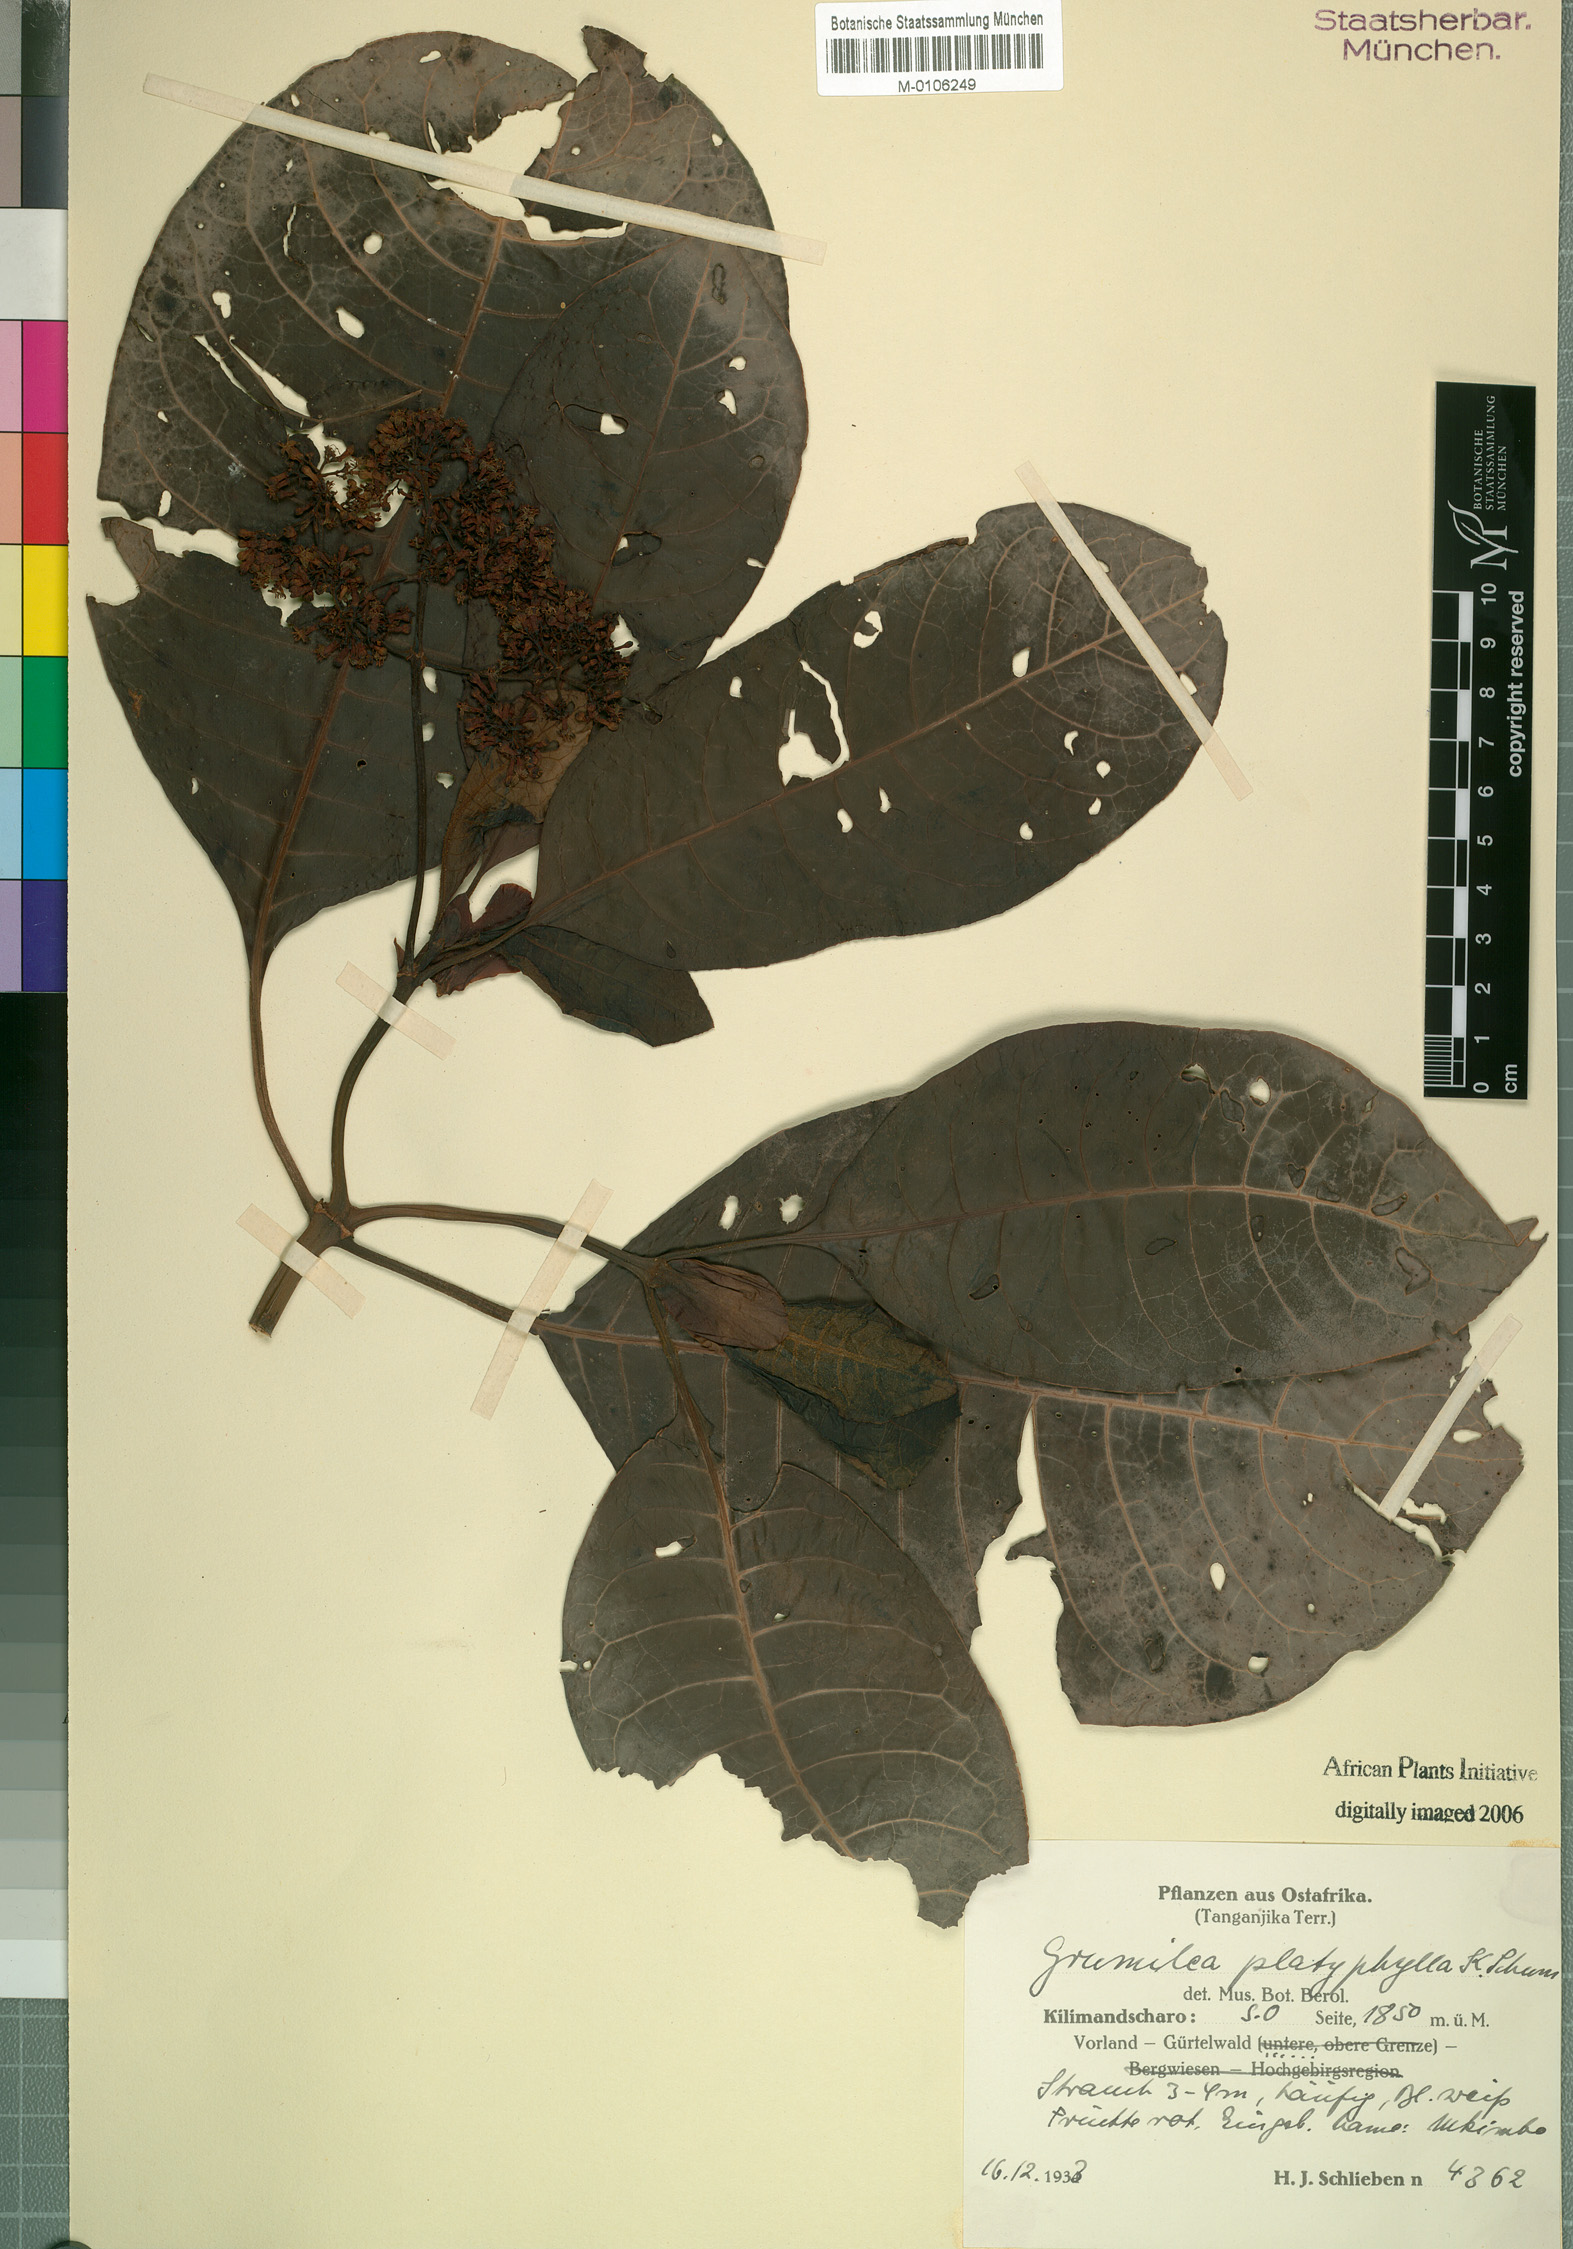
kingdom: Plantae
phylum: Tracheophyta
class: Magnoliopsida
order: Gentianales
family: Rubiaceae
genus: Psychotria
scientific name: Psychotria pseudoplatyphylla
